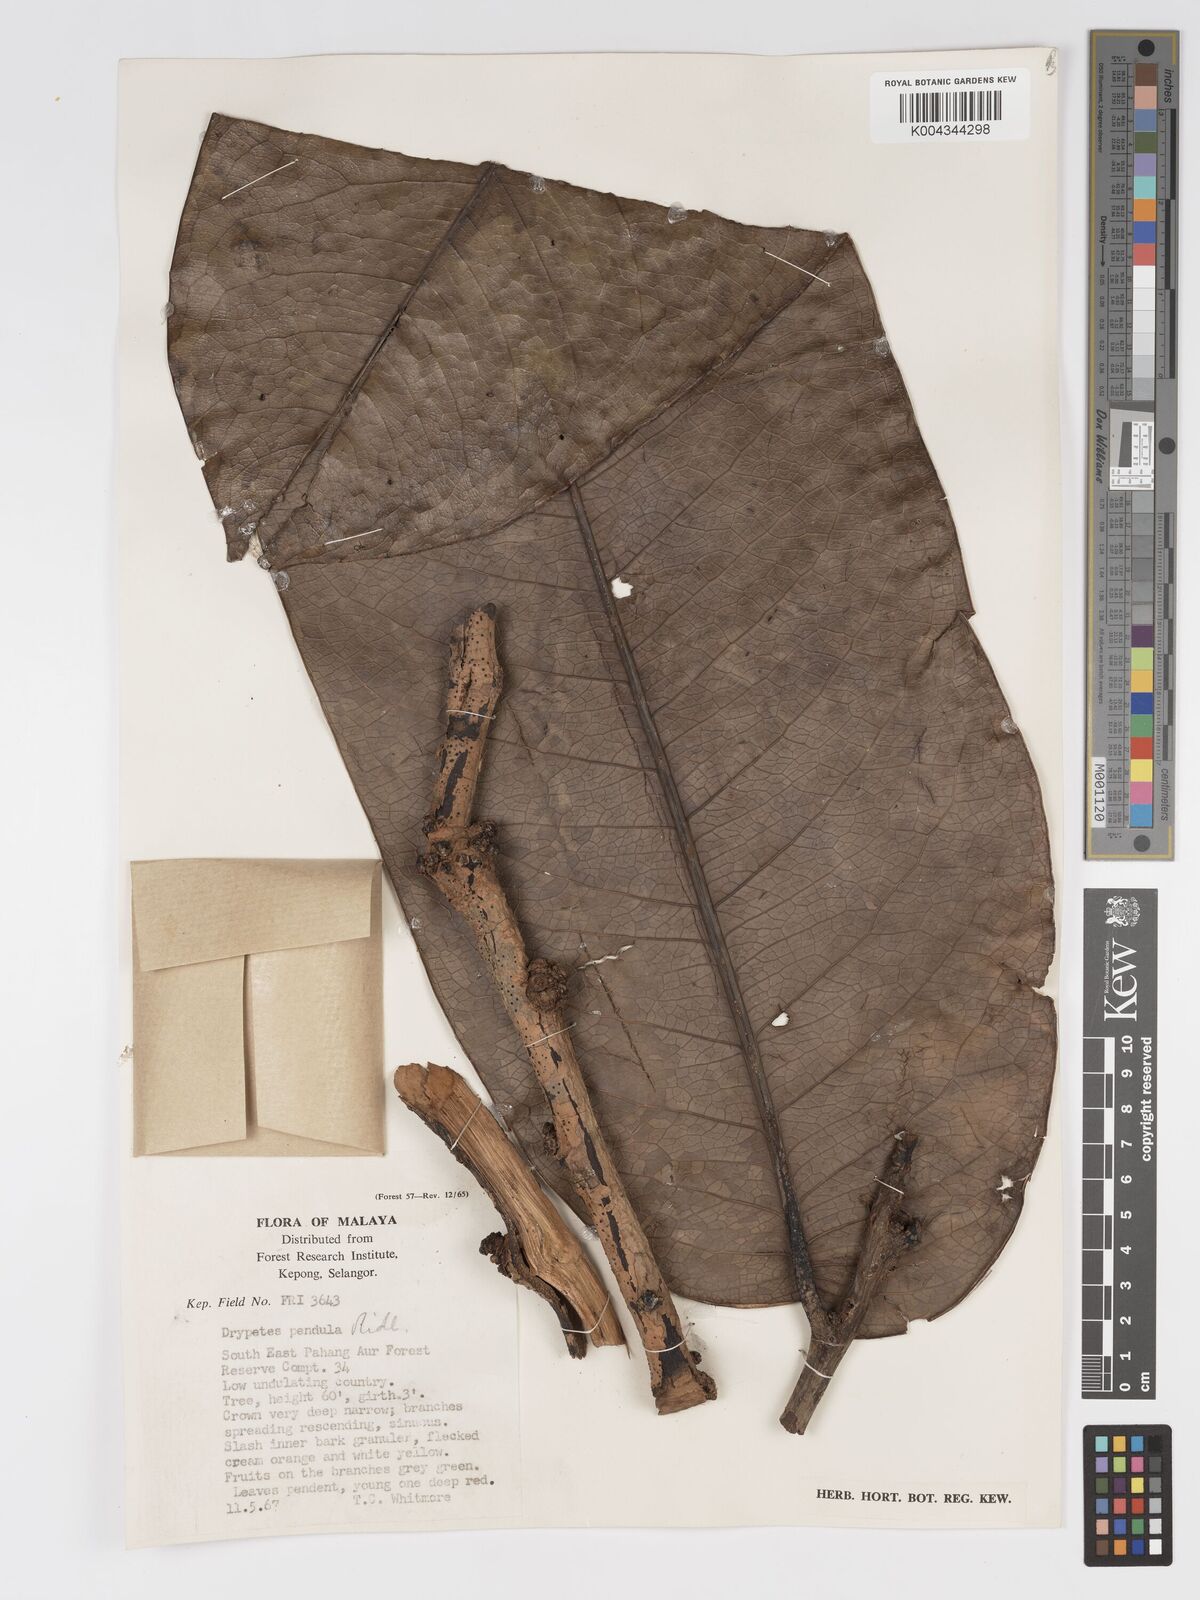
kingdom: Plantae
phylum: Tracheophyta
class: Magnoliopsida
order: Malpighiales
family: Putranjivaceae
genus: Drypetes
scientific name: Drypetes pendula
